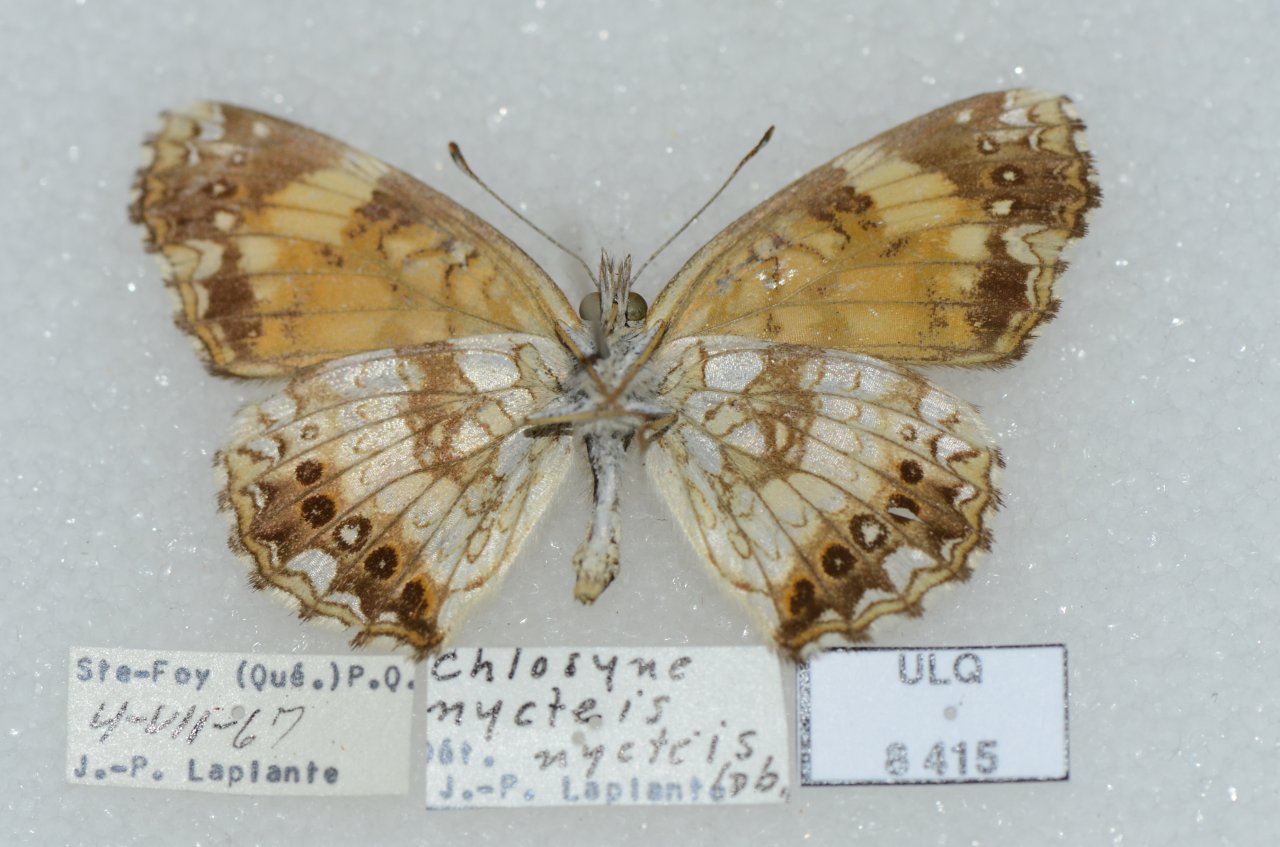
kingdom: Animalia
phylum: Arthropoda
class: Insecta
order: Lepidoptera
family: Nymphalidae
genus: Chlosyne
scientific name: Chlosyne nycteis
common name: Silvery Checkerspot
